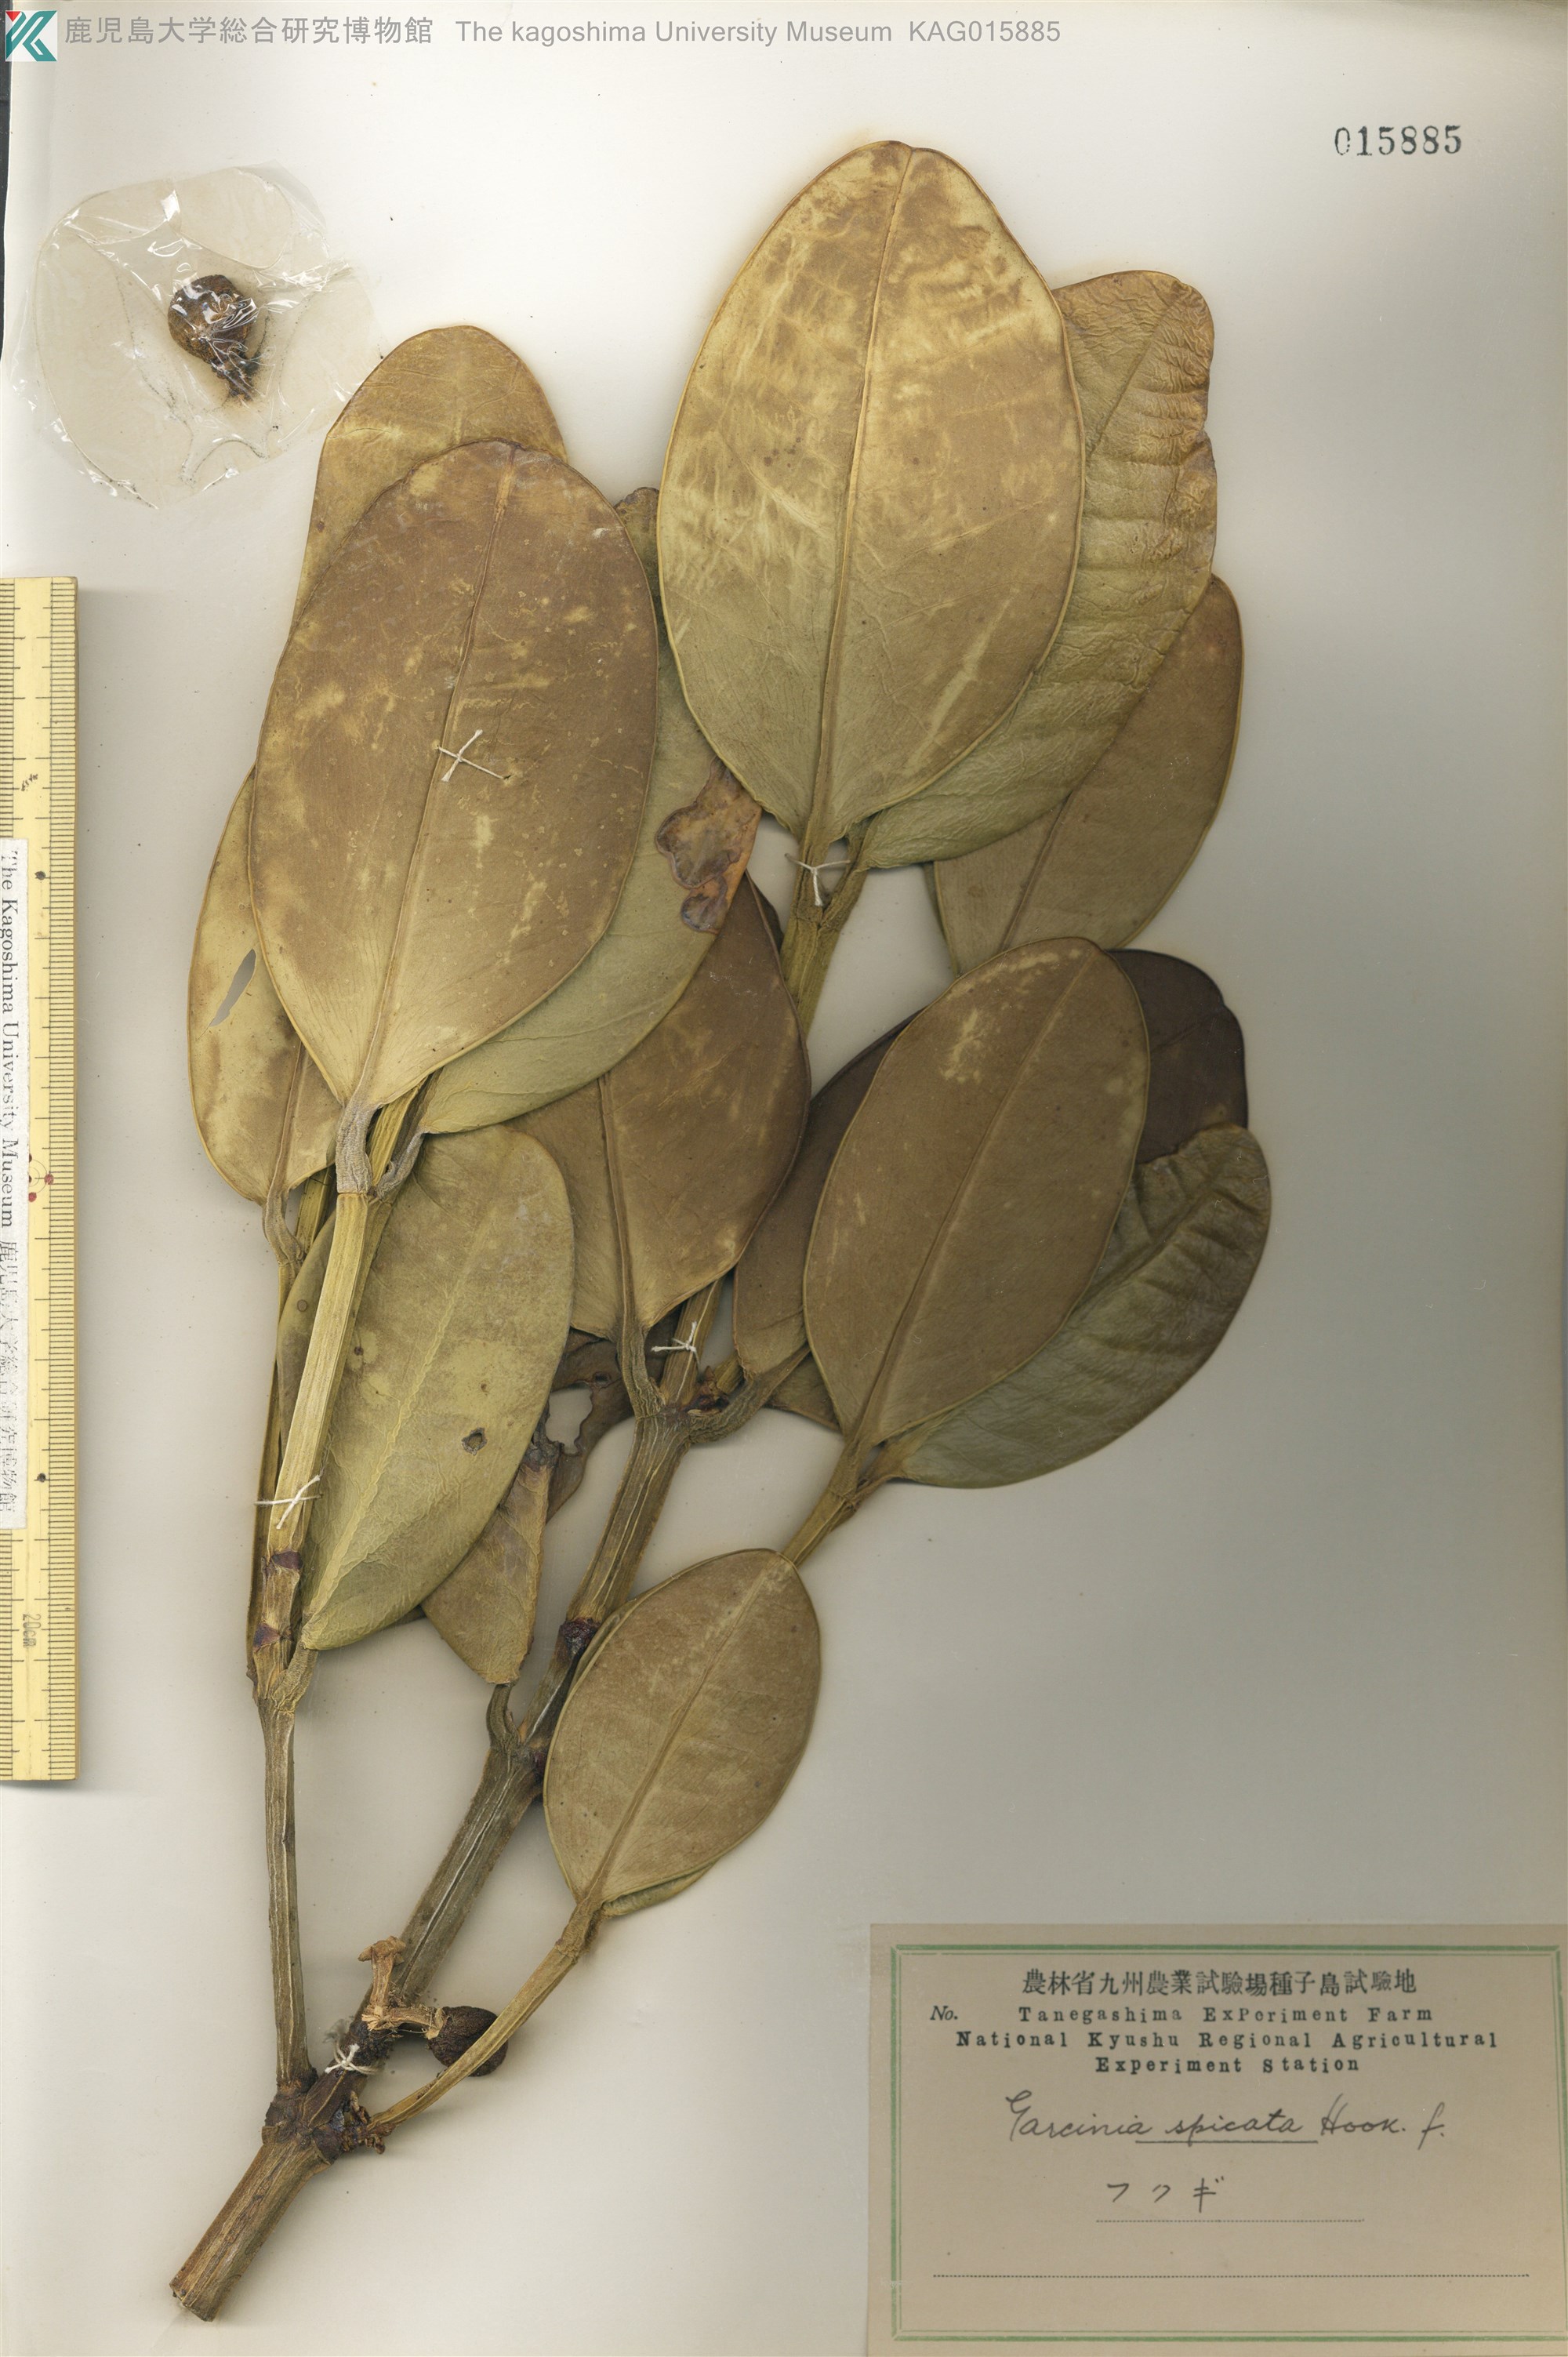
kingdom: Plantae
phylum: Tracheophyta
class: Magnoliopsida
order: Malpighiales
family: Clusiaceae
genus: Garcinia
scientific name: Garcinia subelliptica
